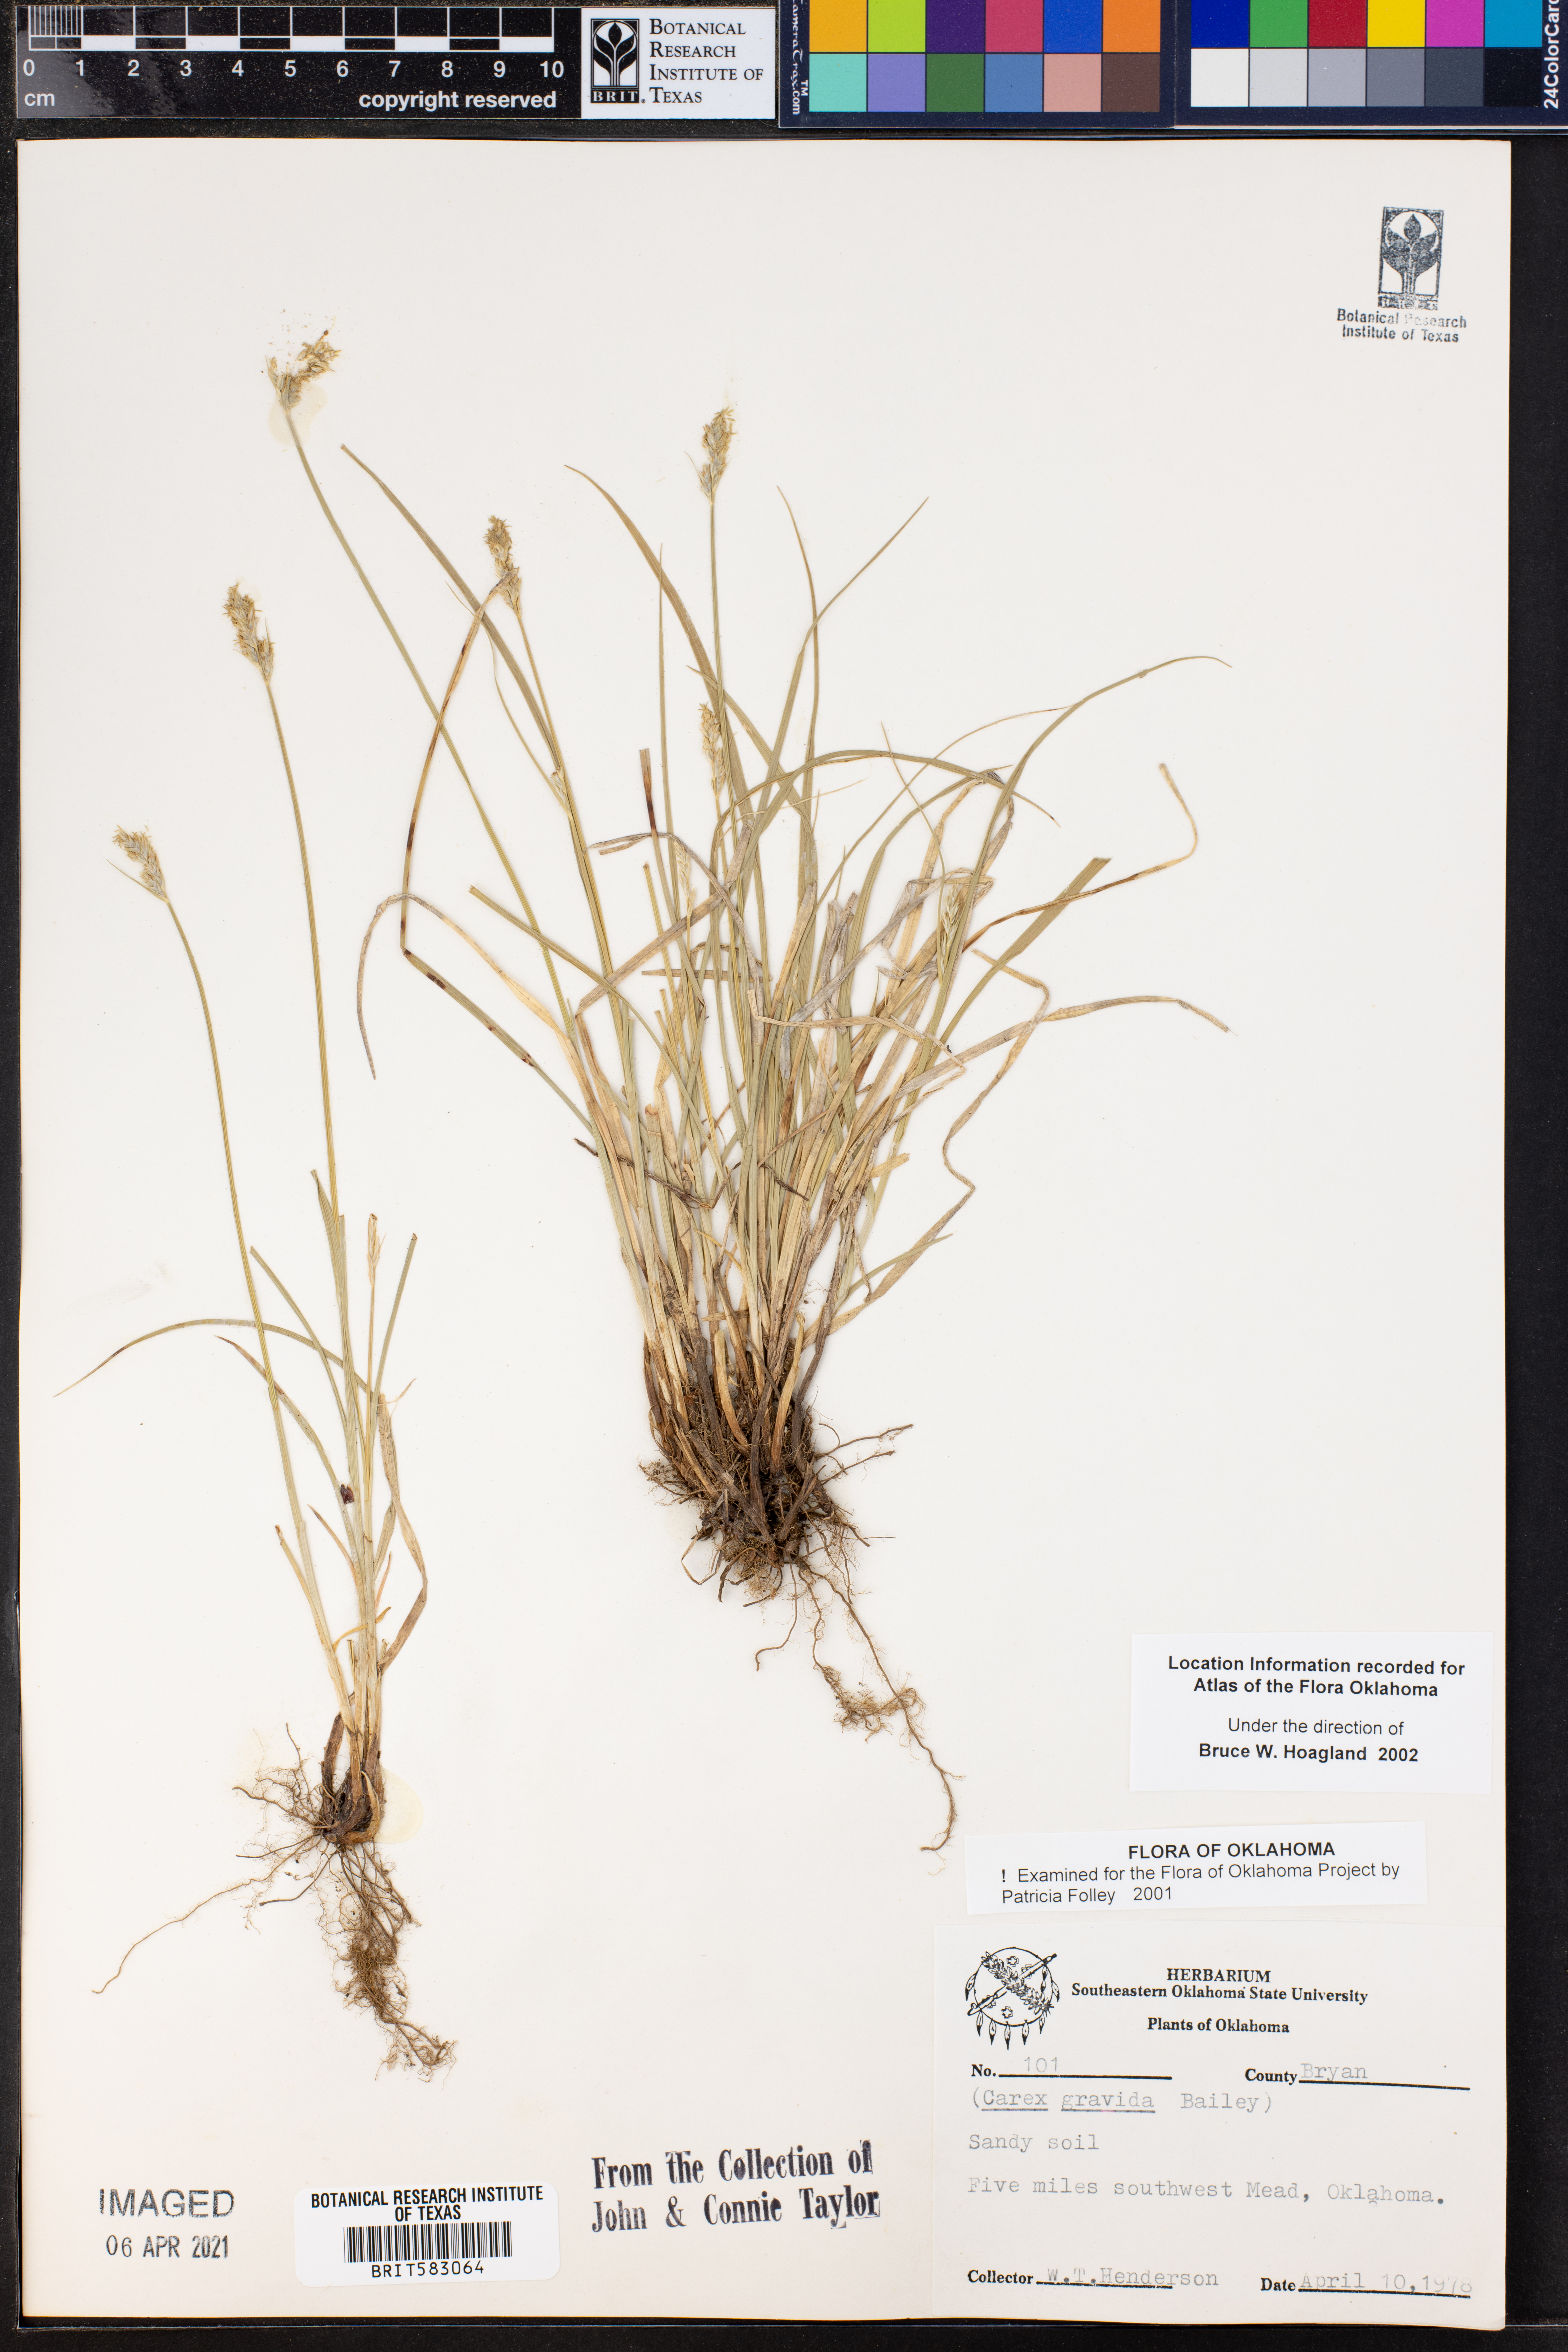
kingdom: Plantae
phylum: Tracheophyta
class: Liliopsida
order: Poales
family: Cyperaceae
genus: Carex
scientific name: Carex gravida
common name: Heavy sedge
